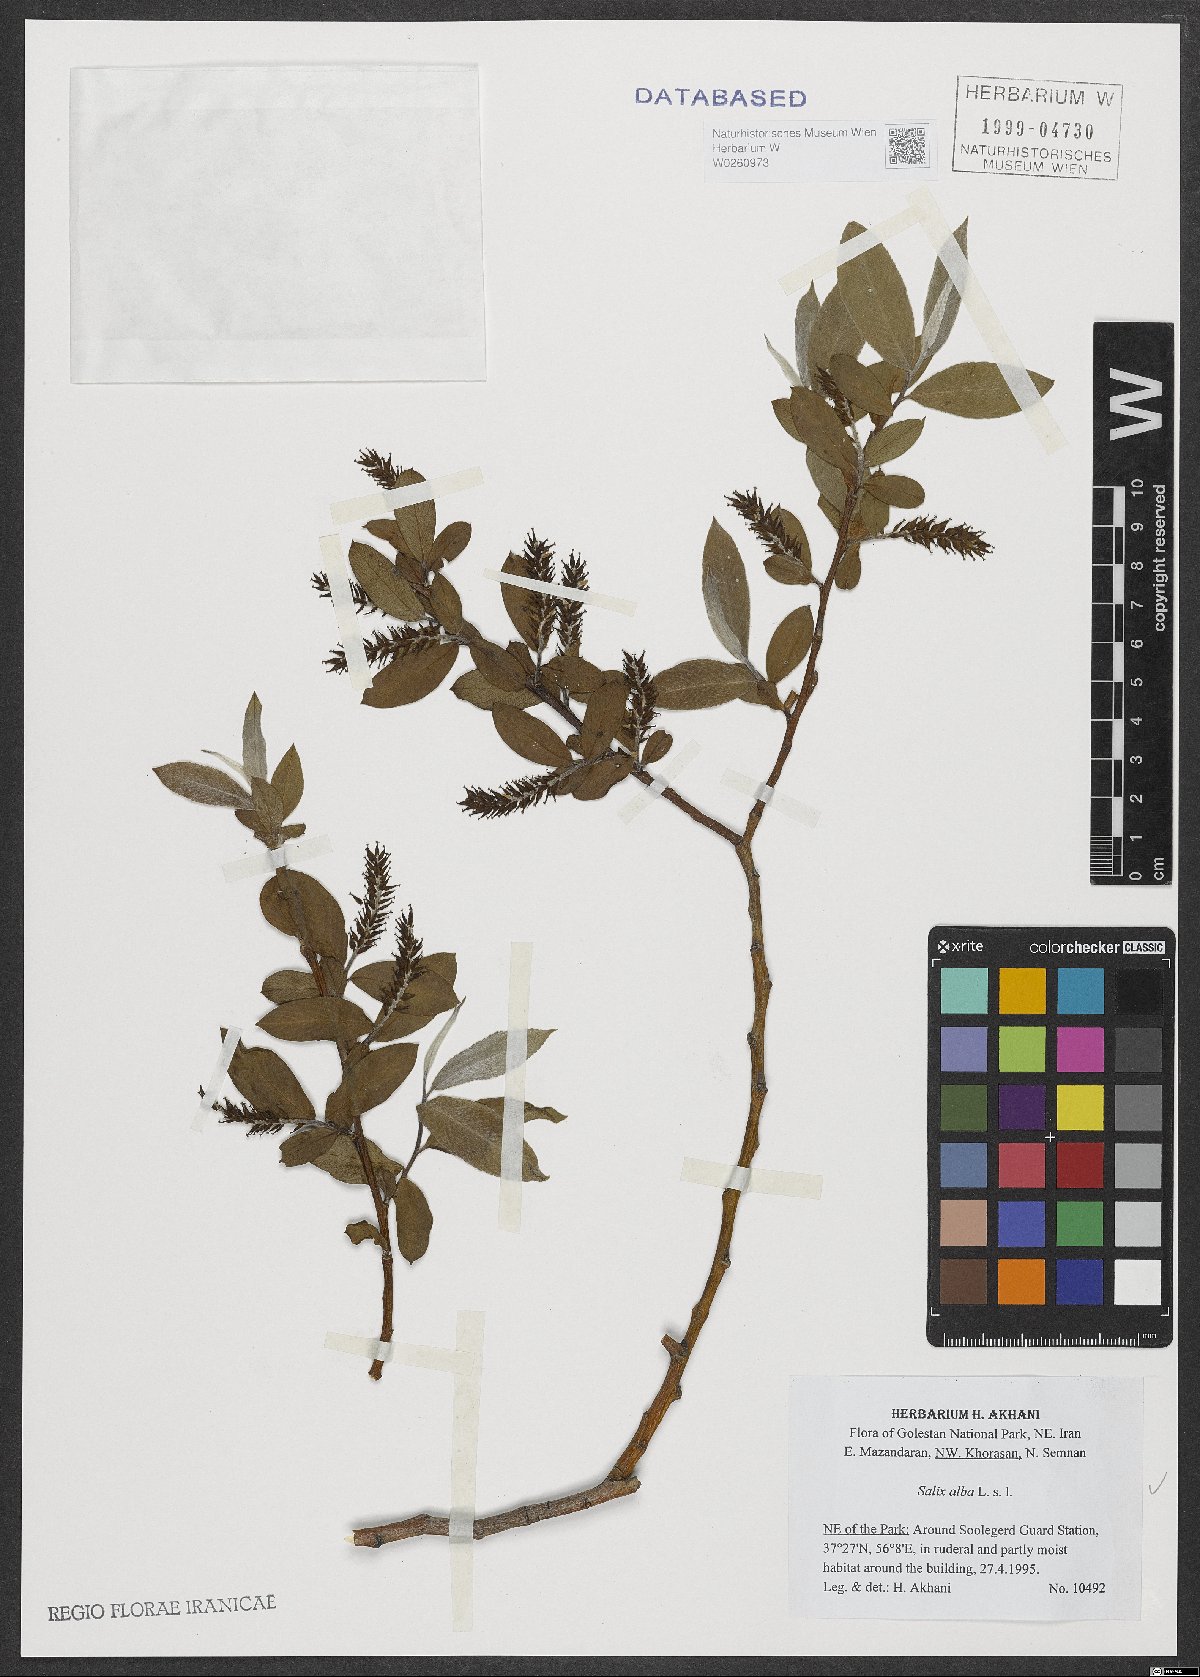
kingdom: Plantae
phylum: Tracheophyta
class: Magnoliopsida
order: Malpighiales
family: Salicaceae
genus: Salix
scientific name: Salix alba
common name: White willow
